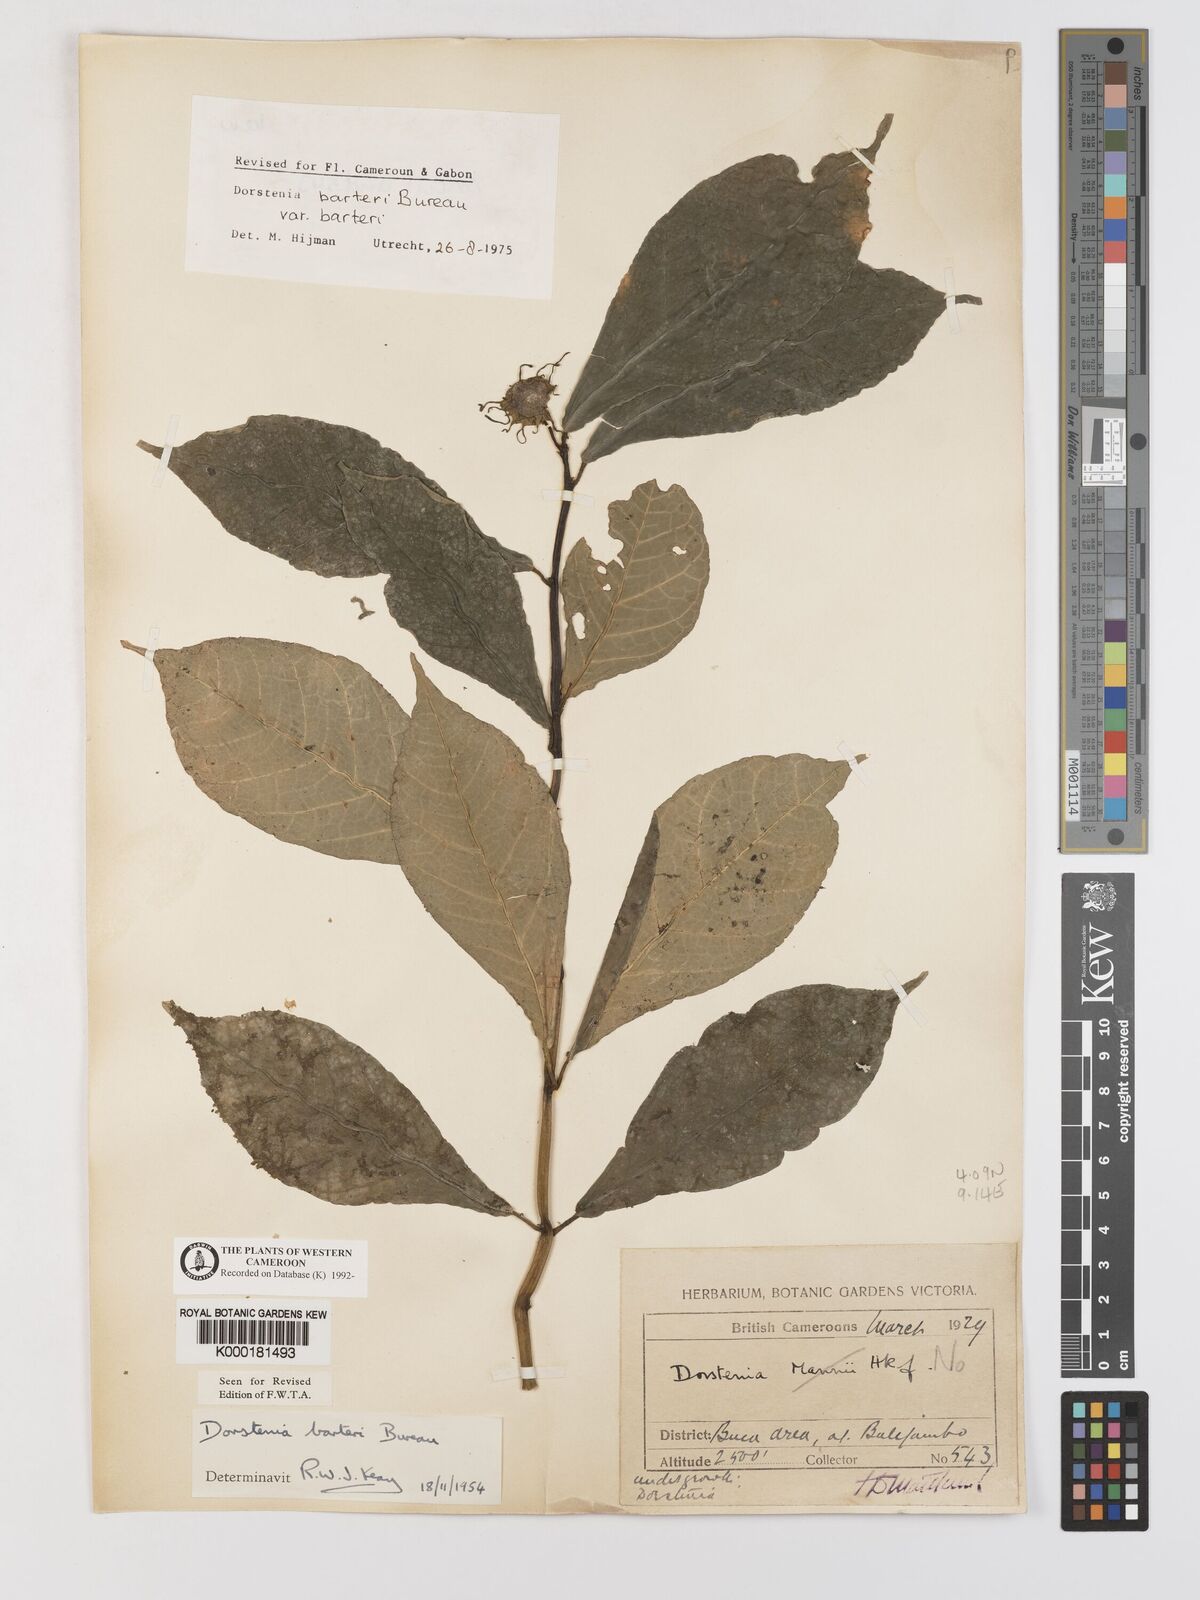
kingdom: Plantae
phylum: Tracheophyta
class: Magnoliopsida
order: Rosales
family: Moraceae
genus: Dorstenia
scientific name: Dorstenia barteri
